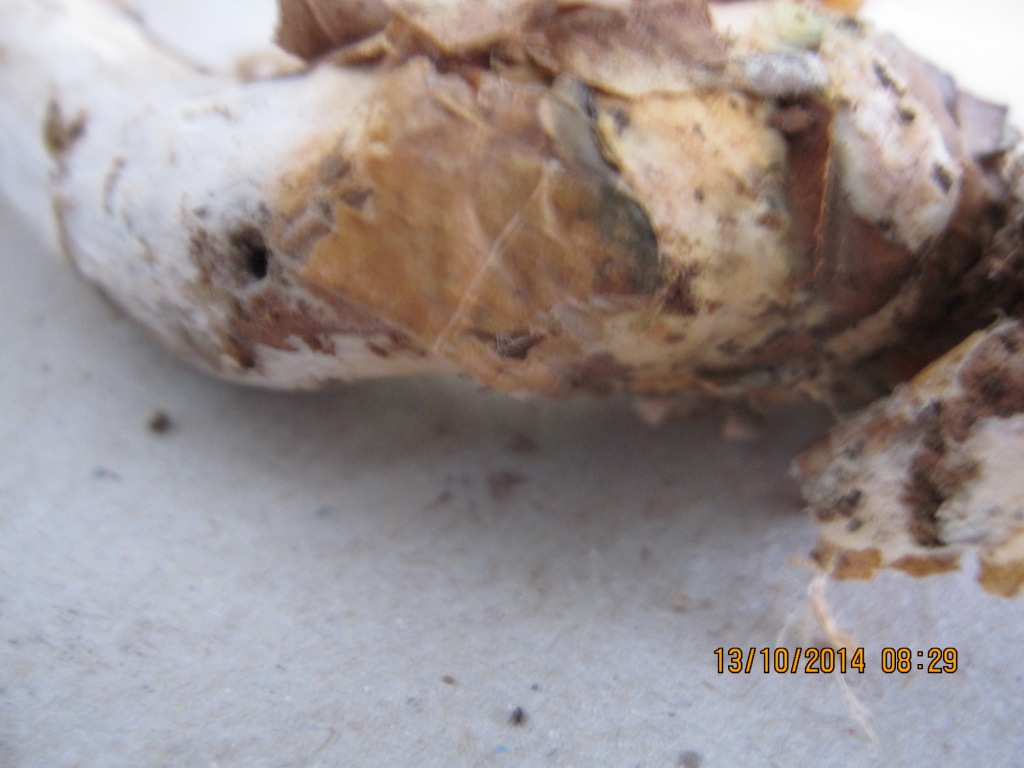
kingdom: Fungi
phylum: Basidiomycota
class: Agaricomycetes
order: Agaricales
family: Agaricaceae
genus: Lepiota
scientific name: Lepiota ignivolvata
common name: orangefodet parasolhat
